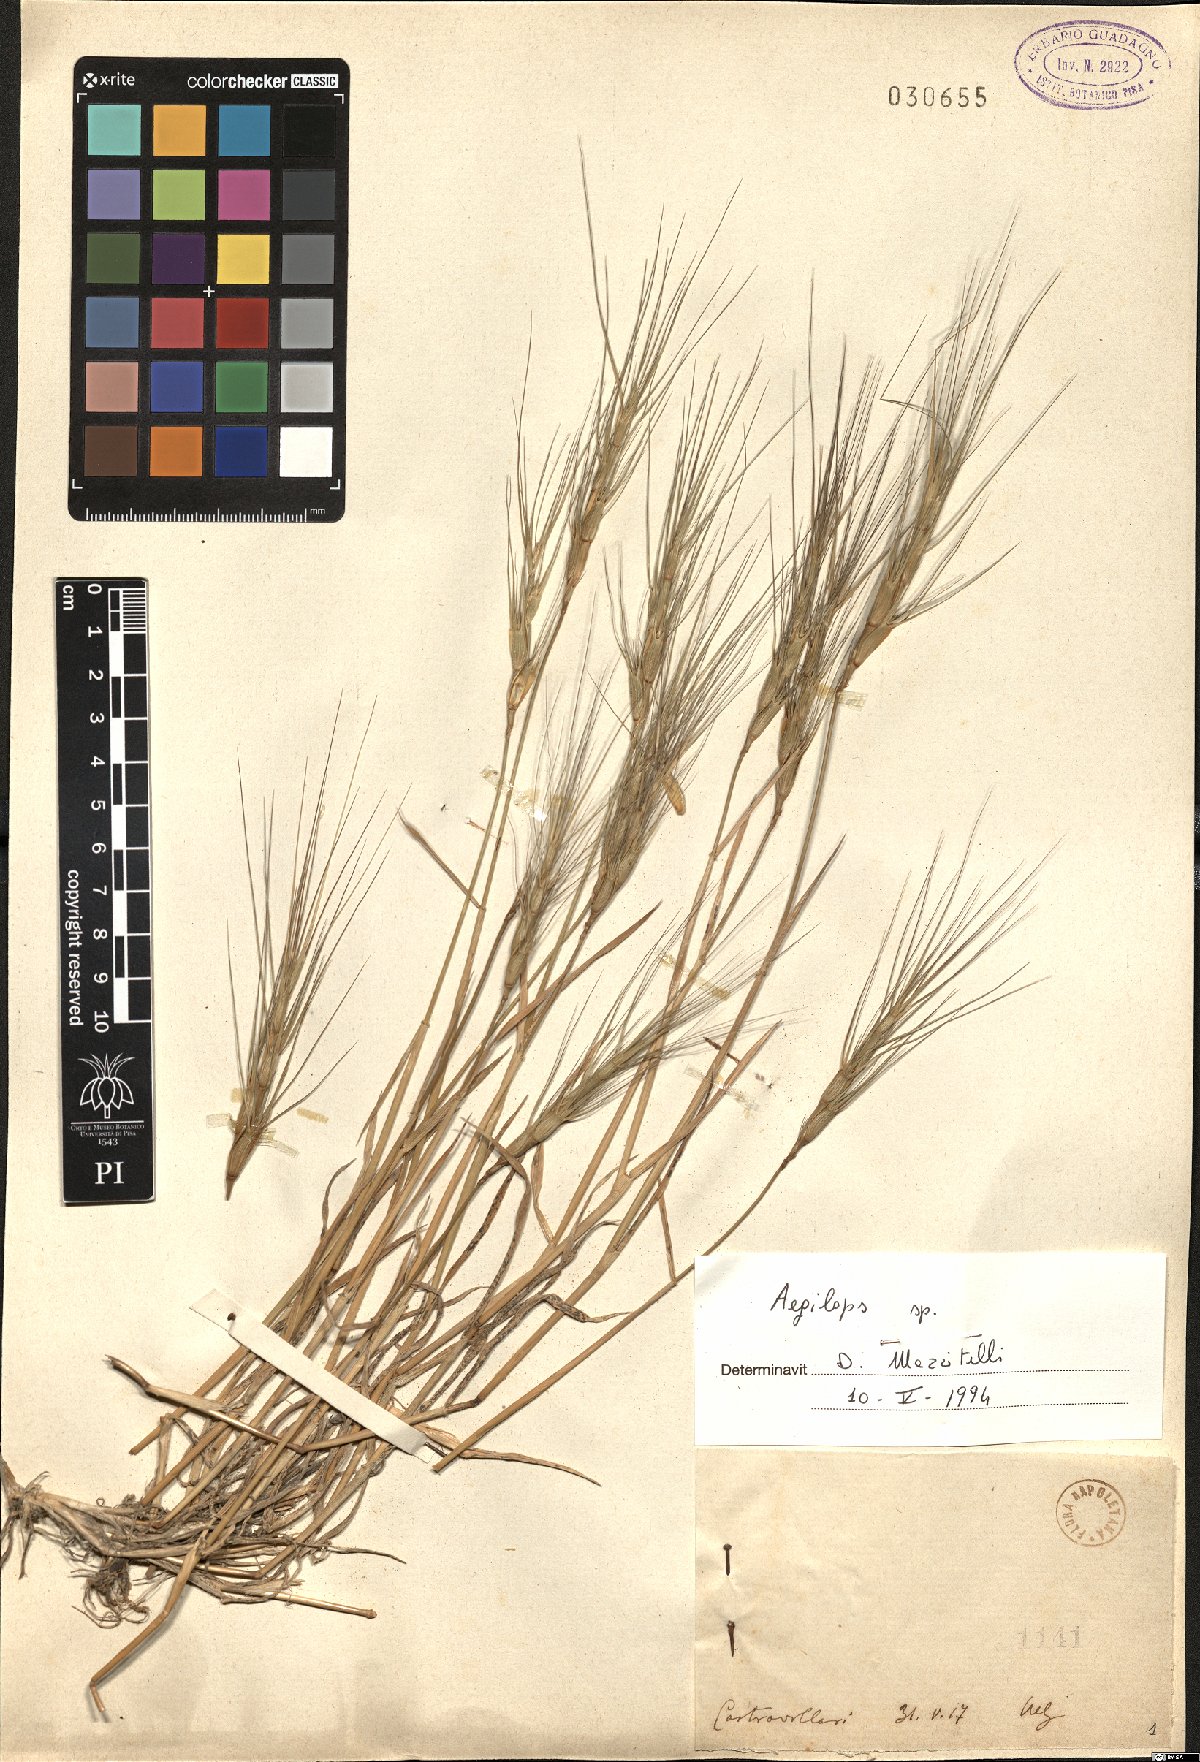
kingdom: Plantae
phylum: Tracheophyta
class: Liliopsida
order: Poales
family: Poaceae
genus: Aegilops
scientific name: Aegilops
